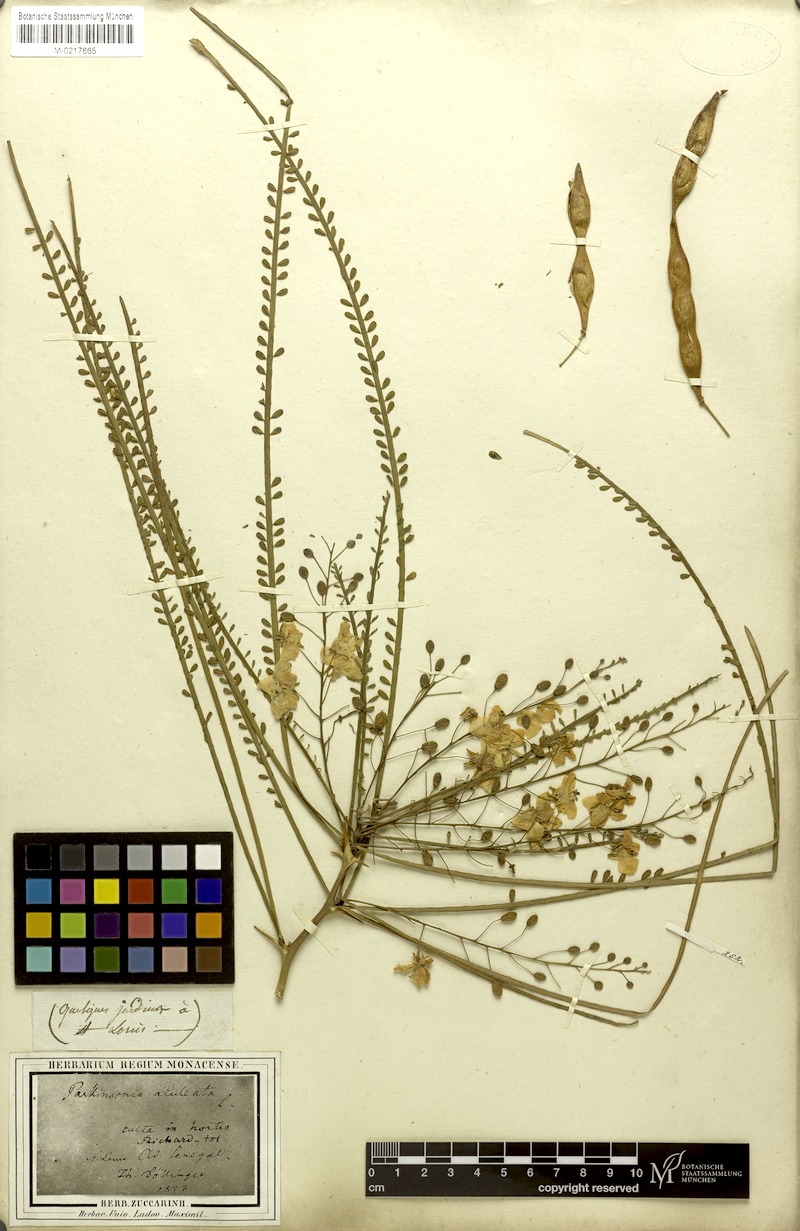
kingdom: Plantae
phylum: Tracheophyta
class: Magnoliopsida
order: Fabales
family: Fabaceae
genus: Parkinsonia
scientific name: Parkinsonia aculeata
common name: Jerusalem thorn
